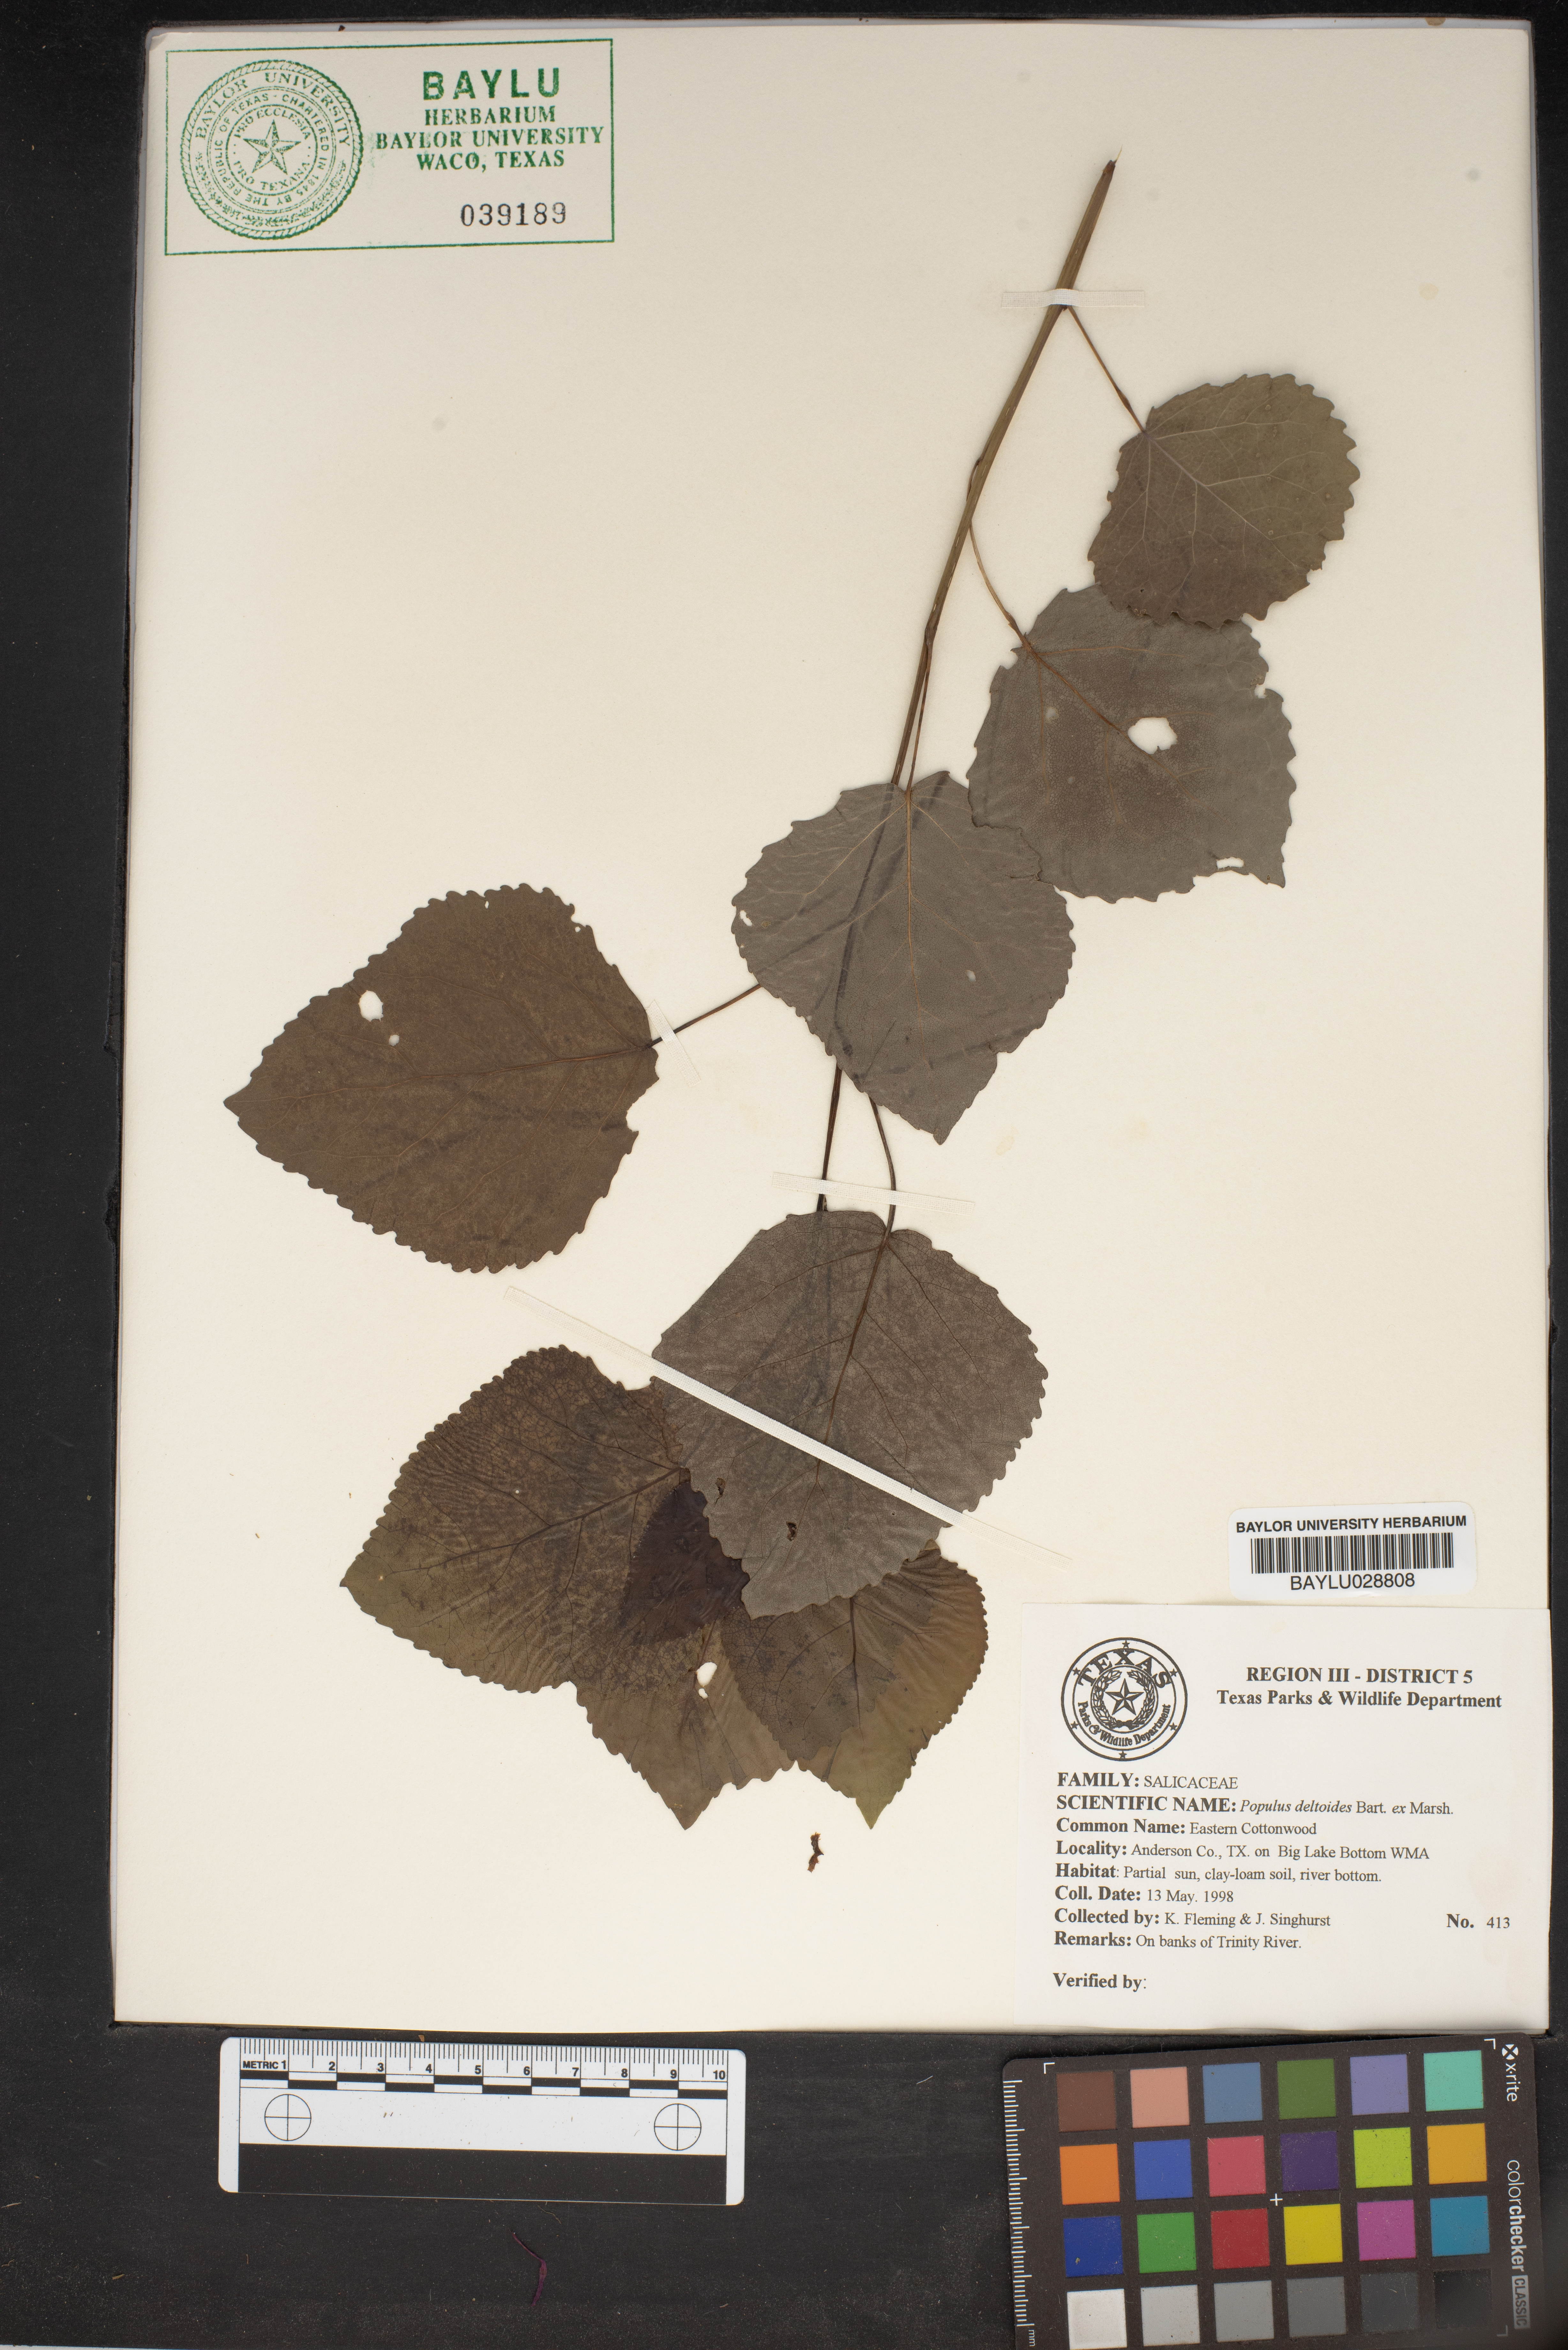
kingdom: Plantae
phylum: Tracheophyta
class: Magnoliopsida
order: Malpighiales
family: Salicaceae
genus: Populus
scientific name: Populus deltoides
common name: Eastern cottonwood
